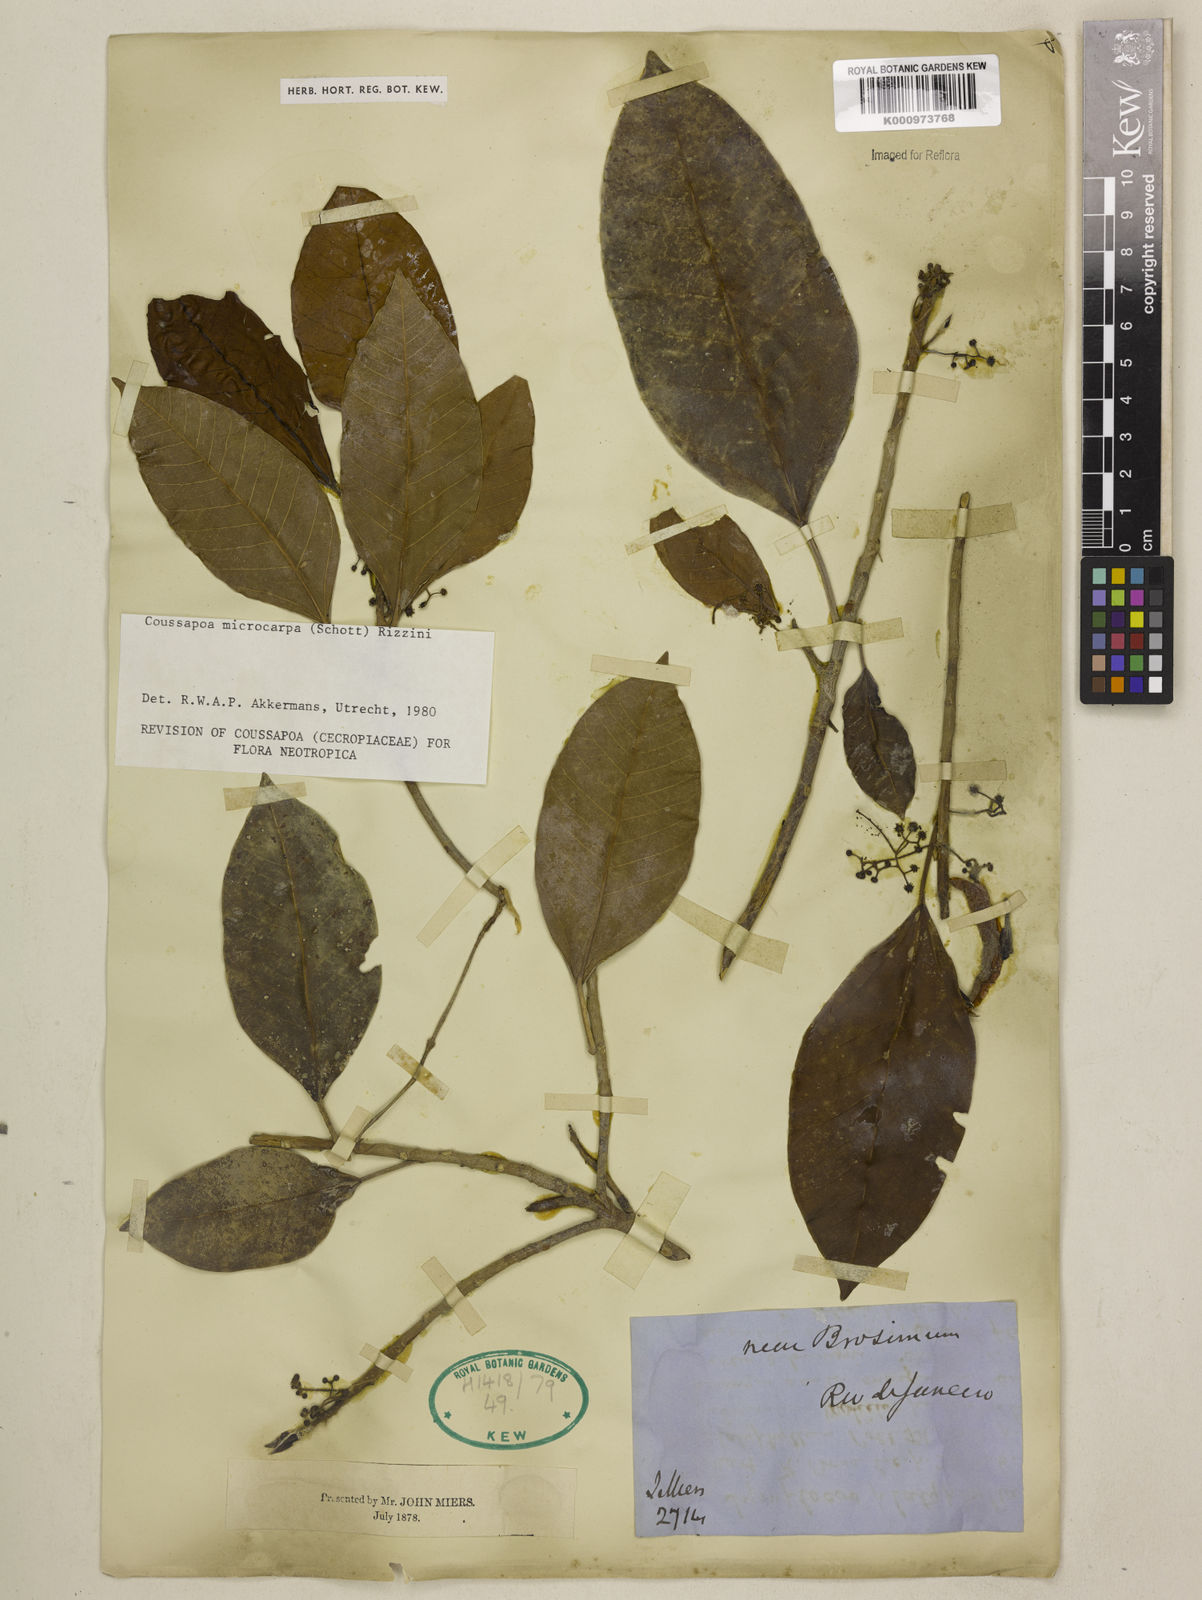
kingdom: Plantae
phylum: Tracheophyta
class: Magnoliopsida
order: Rosales
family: Urticaceae
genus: Coussapoa
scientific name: Coussapoa microcarpa
